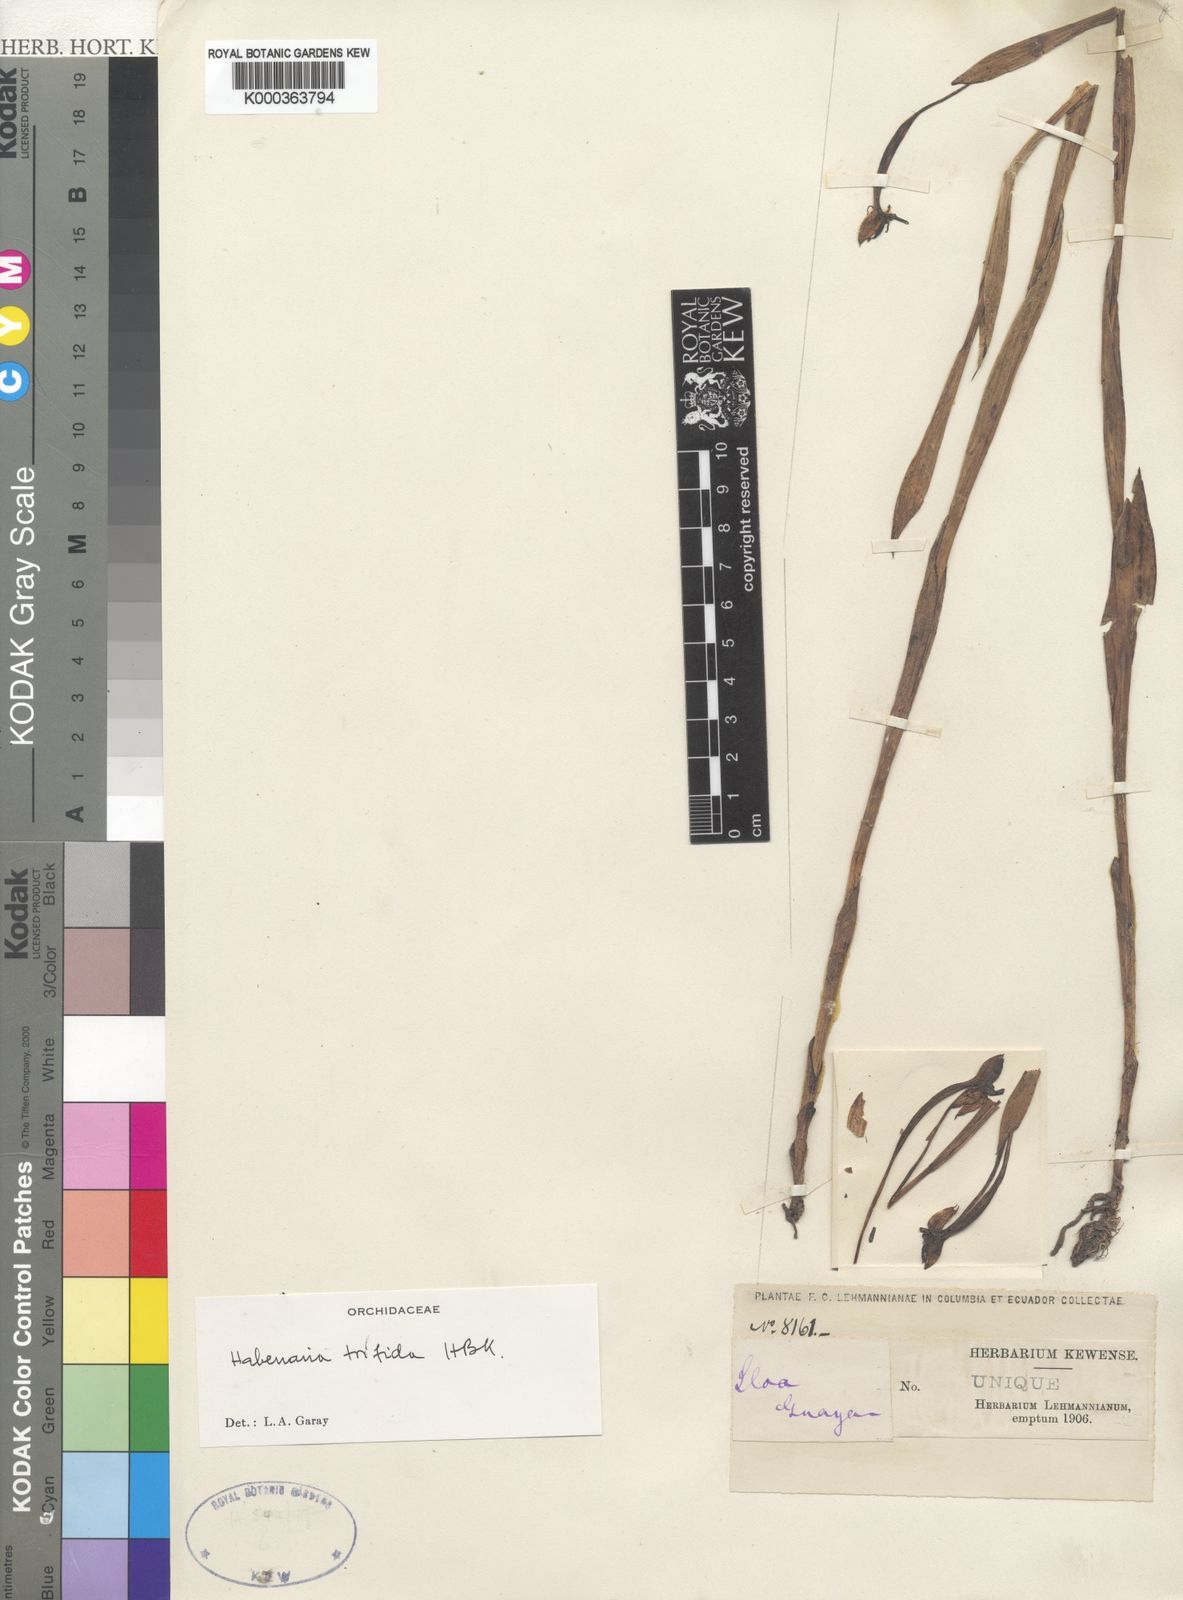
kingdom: Plantae
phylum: Tracheophyta
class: Liliopsida
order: Asparagales
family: Orchidaceae
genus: Habenaria
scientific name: Habenaria trifida
